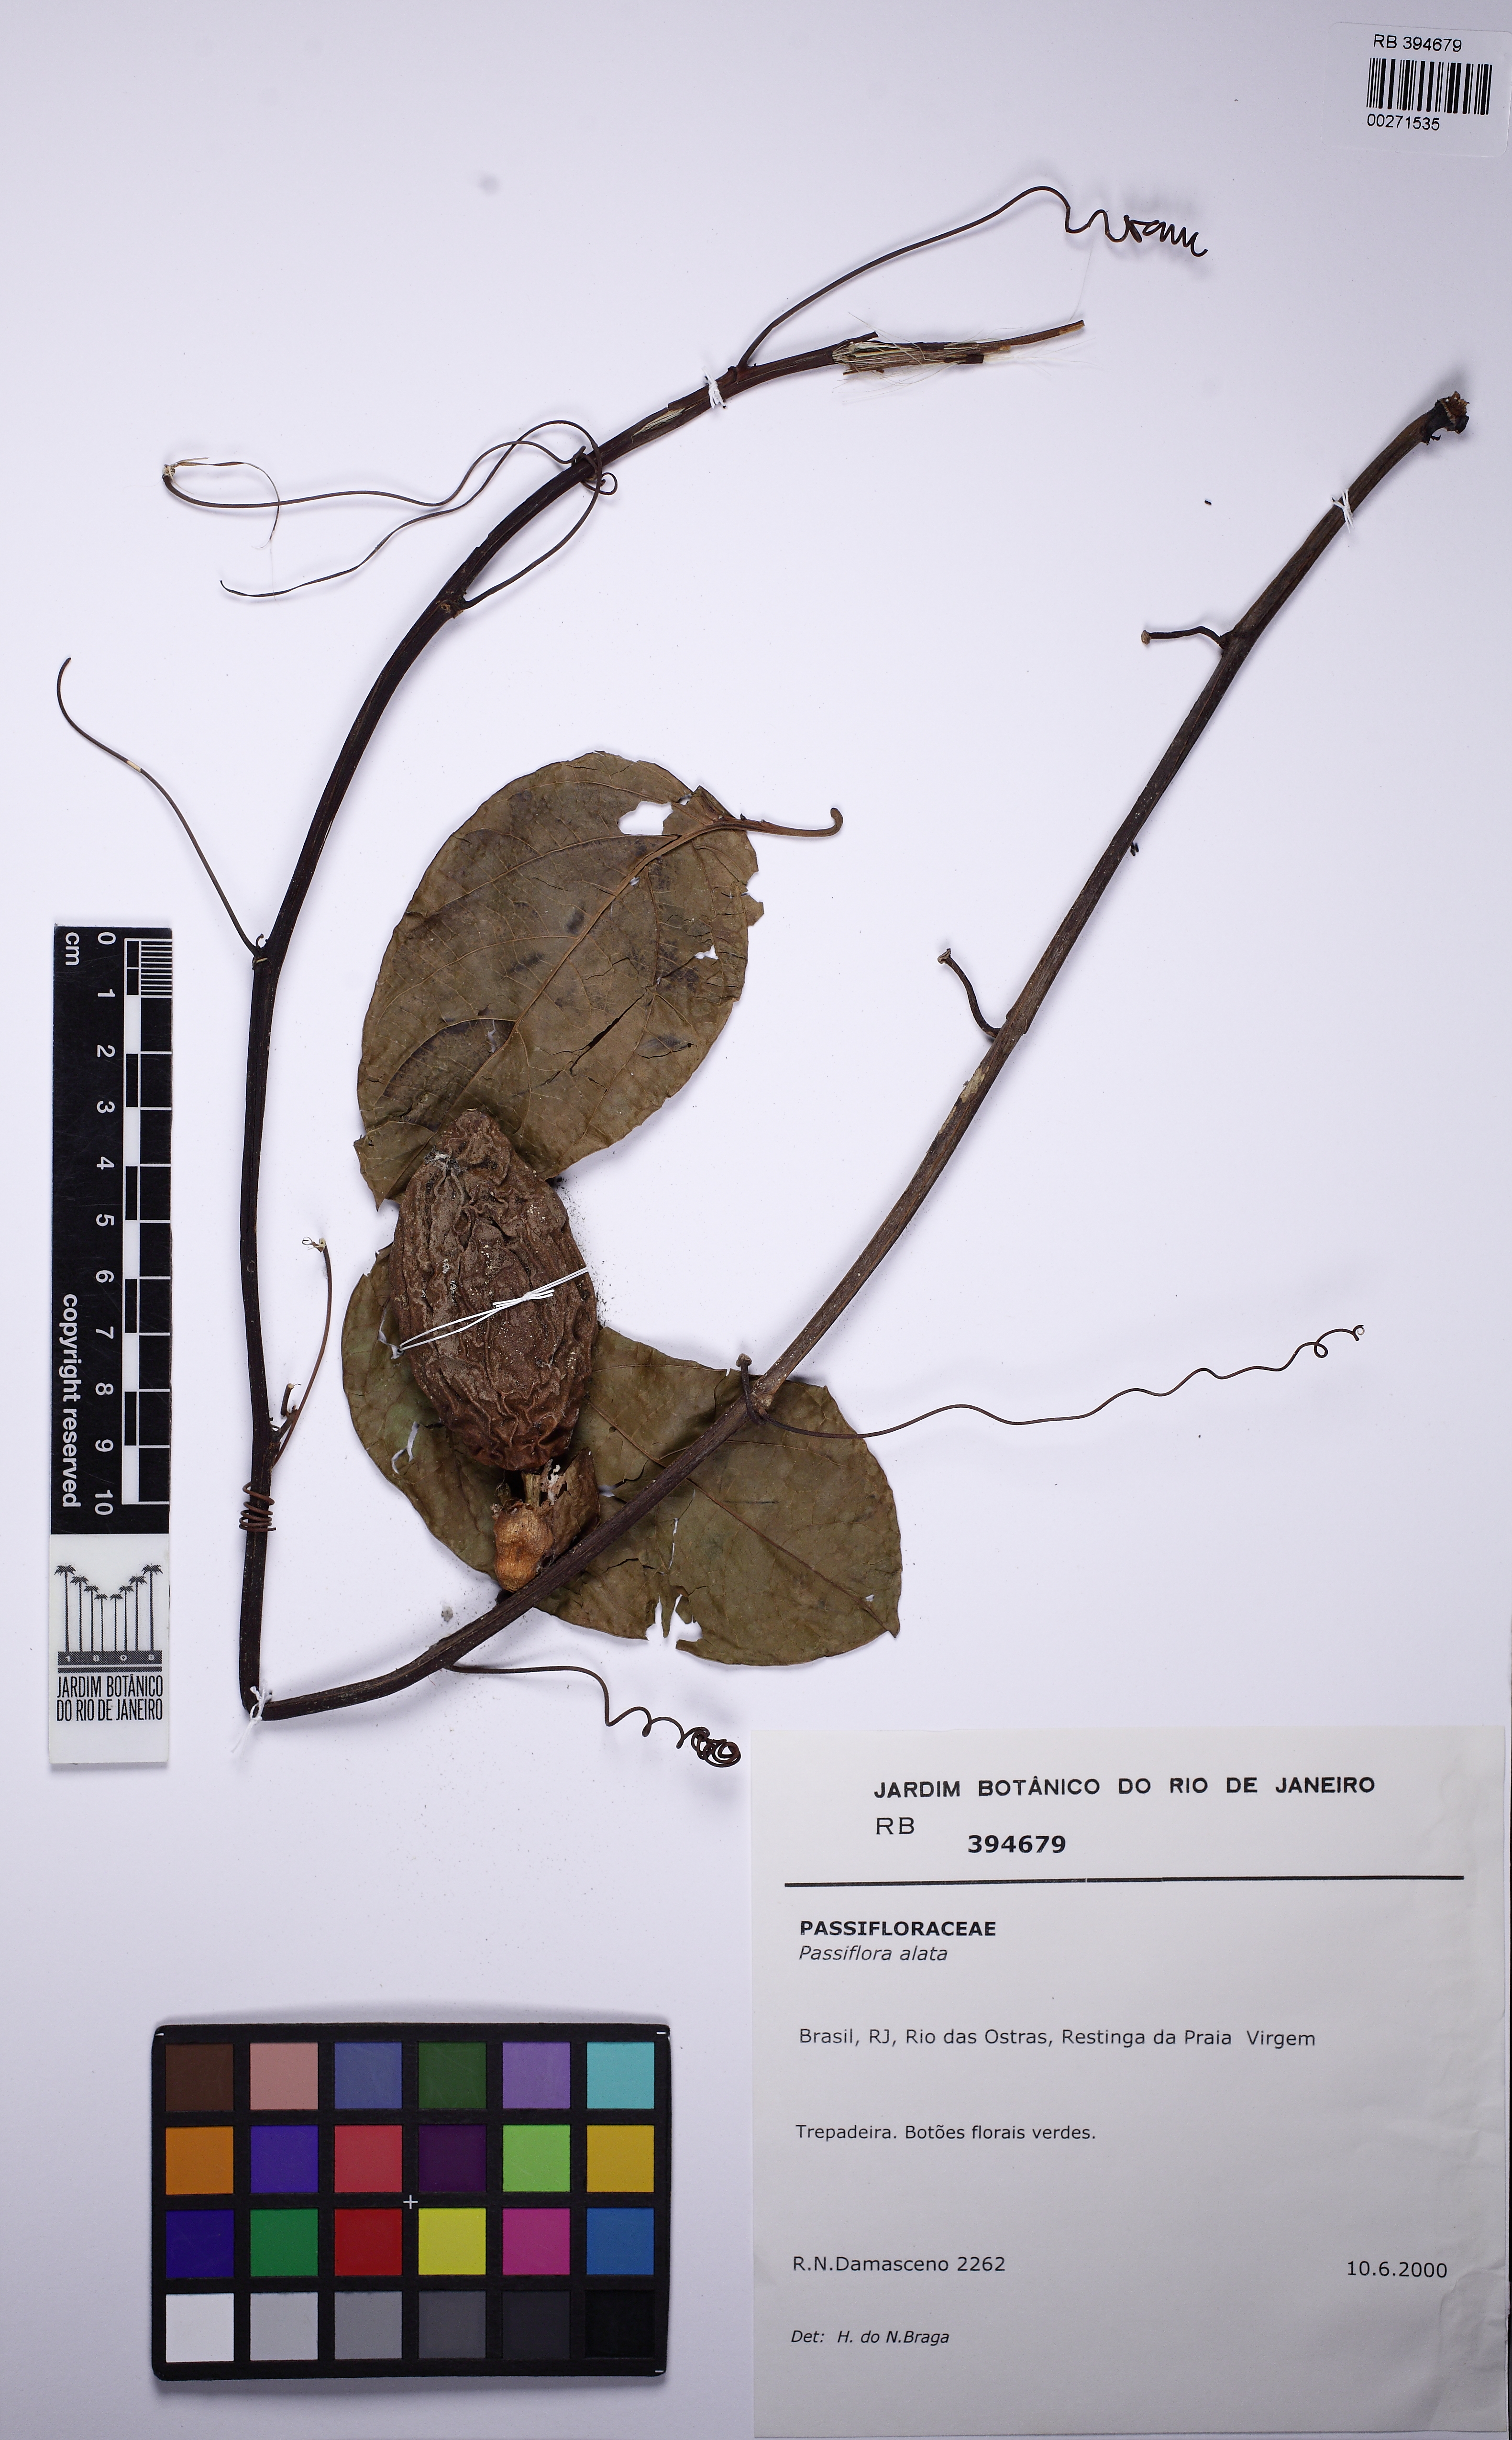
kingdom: Plantae
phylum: Tracheophyta
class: Magnoliopsida
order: Malpighiales
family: Passifloraceae
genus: Passiflora
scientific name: Passiflora alata
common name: Wing-stemmed passion flower
